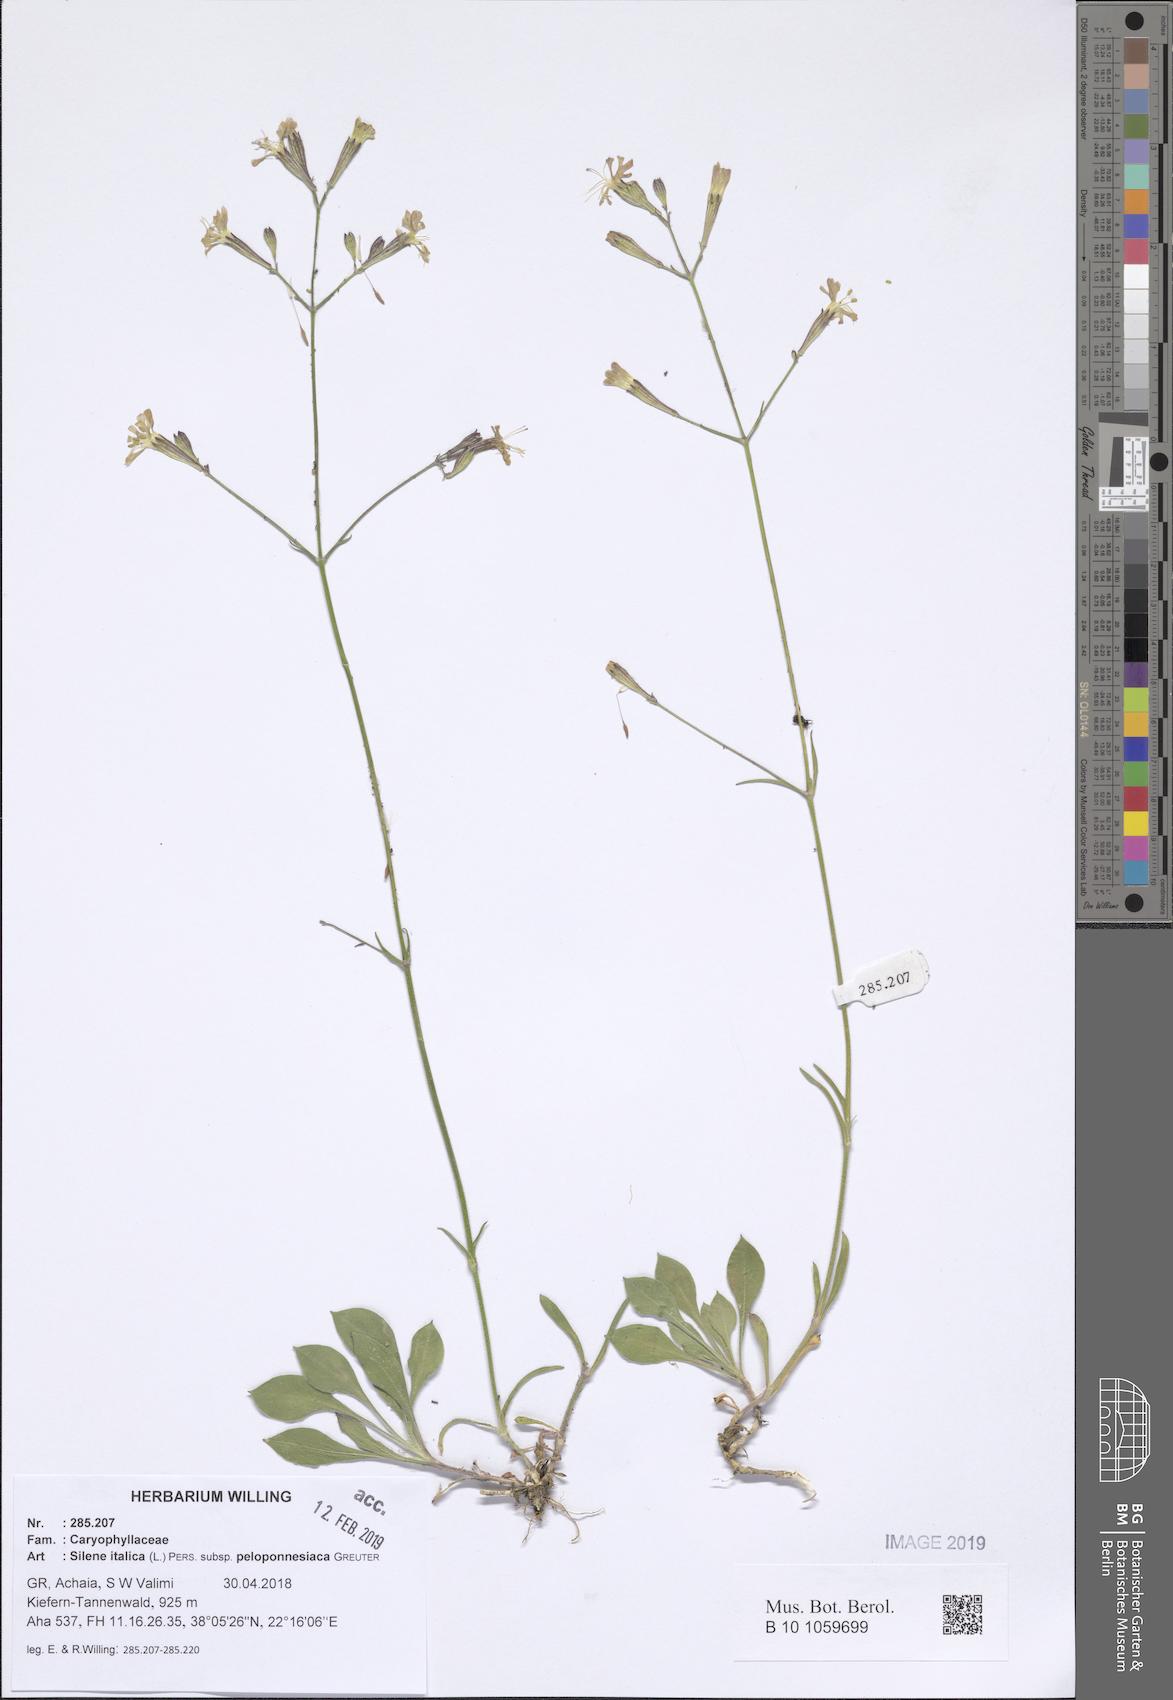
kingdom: Plantae
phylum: Tracheophyta
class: Magnoliopsida
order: Caryophyllales
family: Caryophyllaceae
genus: Silene
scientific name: Silene italica
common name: Italian catchfly
